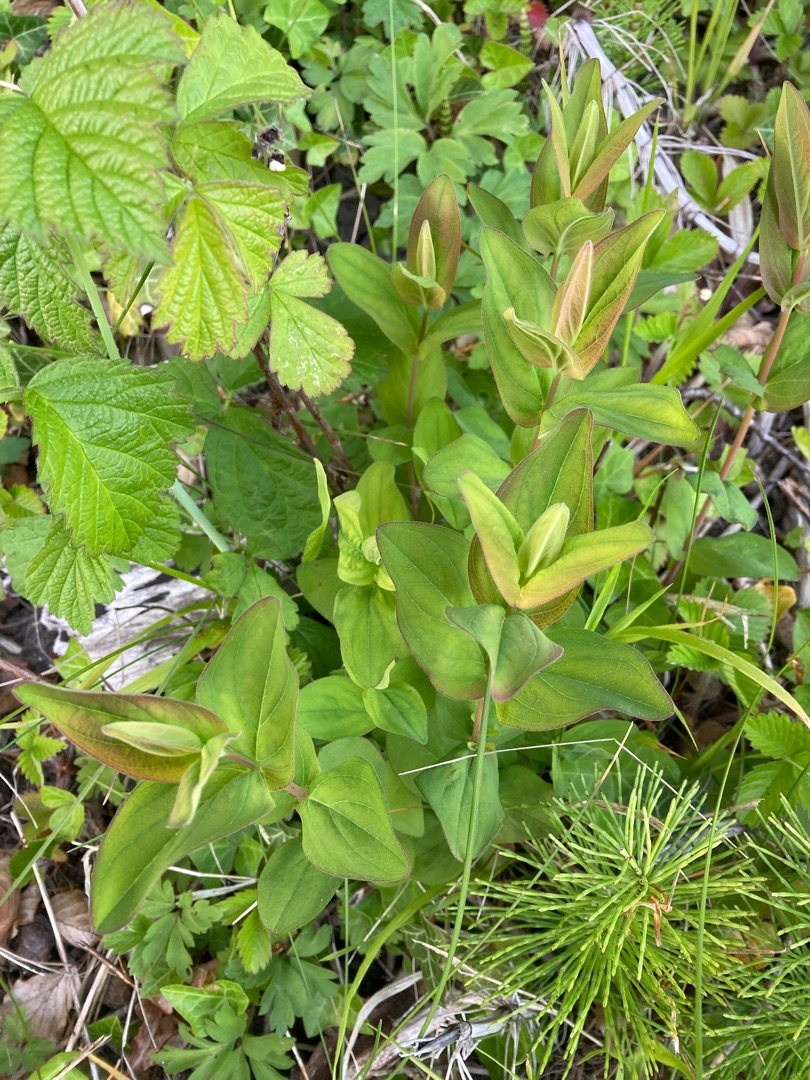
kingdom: Plantae
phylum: Tracheophyta
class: Magnoliopsida
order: Malpighiales
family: Hypericaceae
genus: Hypericum
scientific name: Hypericum montanum
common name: Bjerg-perikon
